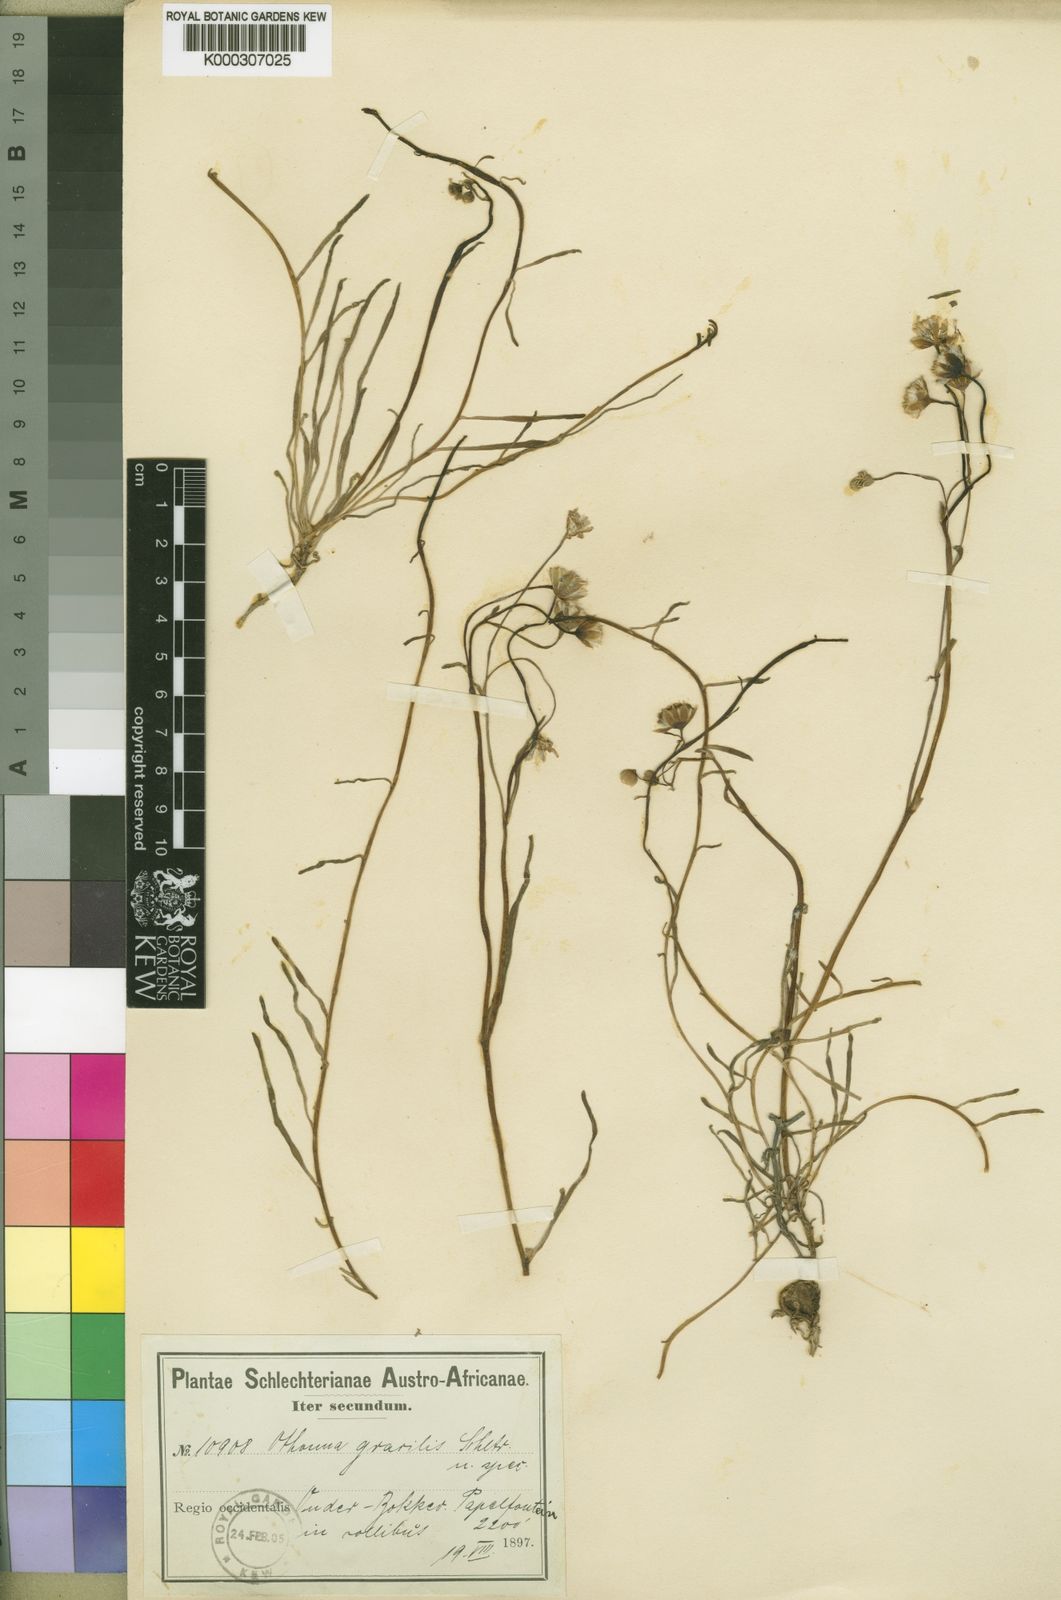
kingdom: Plantae
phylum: Tracheophyta
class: Magnoliopsida
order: Asterales
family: Asteraceae
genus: Othonna
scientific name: Othonna
